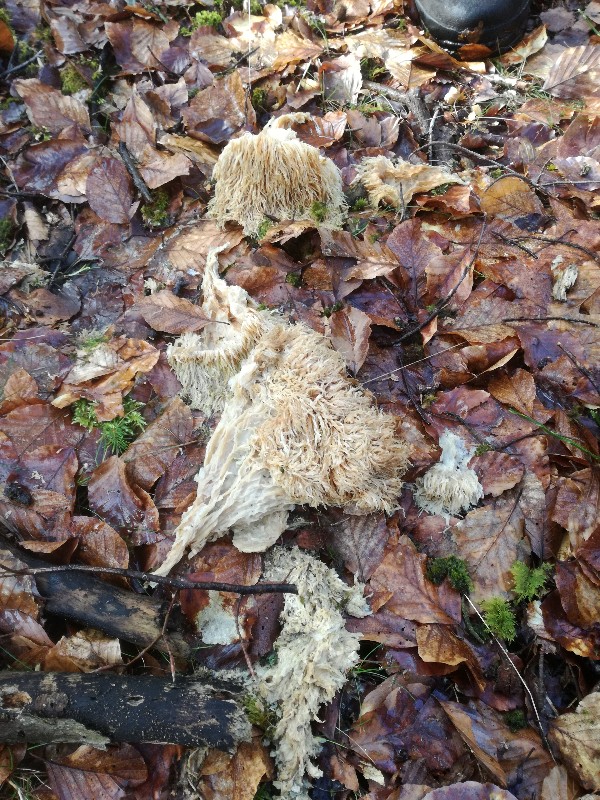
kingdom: Fungi
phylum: Basidiomycota
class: Agaricomycetes
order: Russulales
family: Hericiaceae
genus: Hericium
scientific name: Hericium erinaceus
